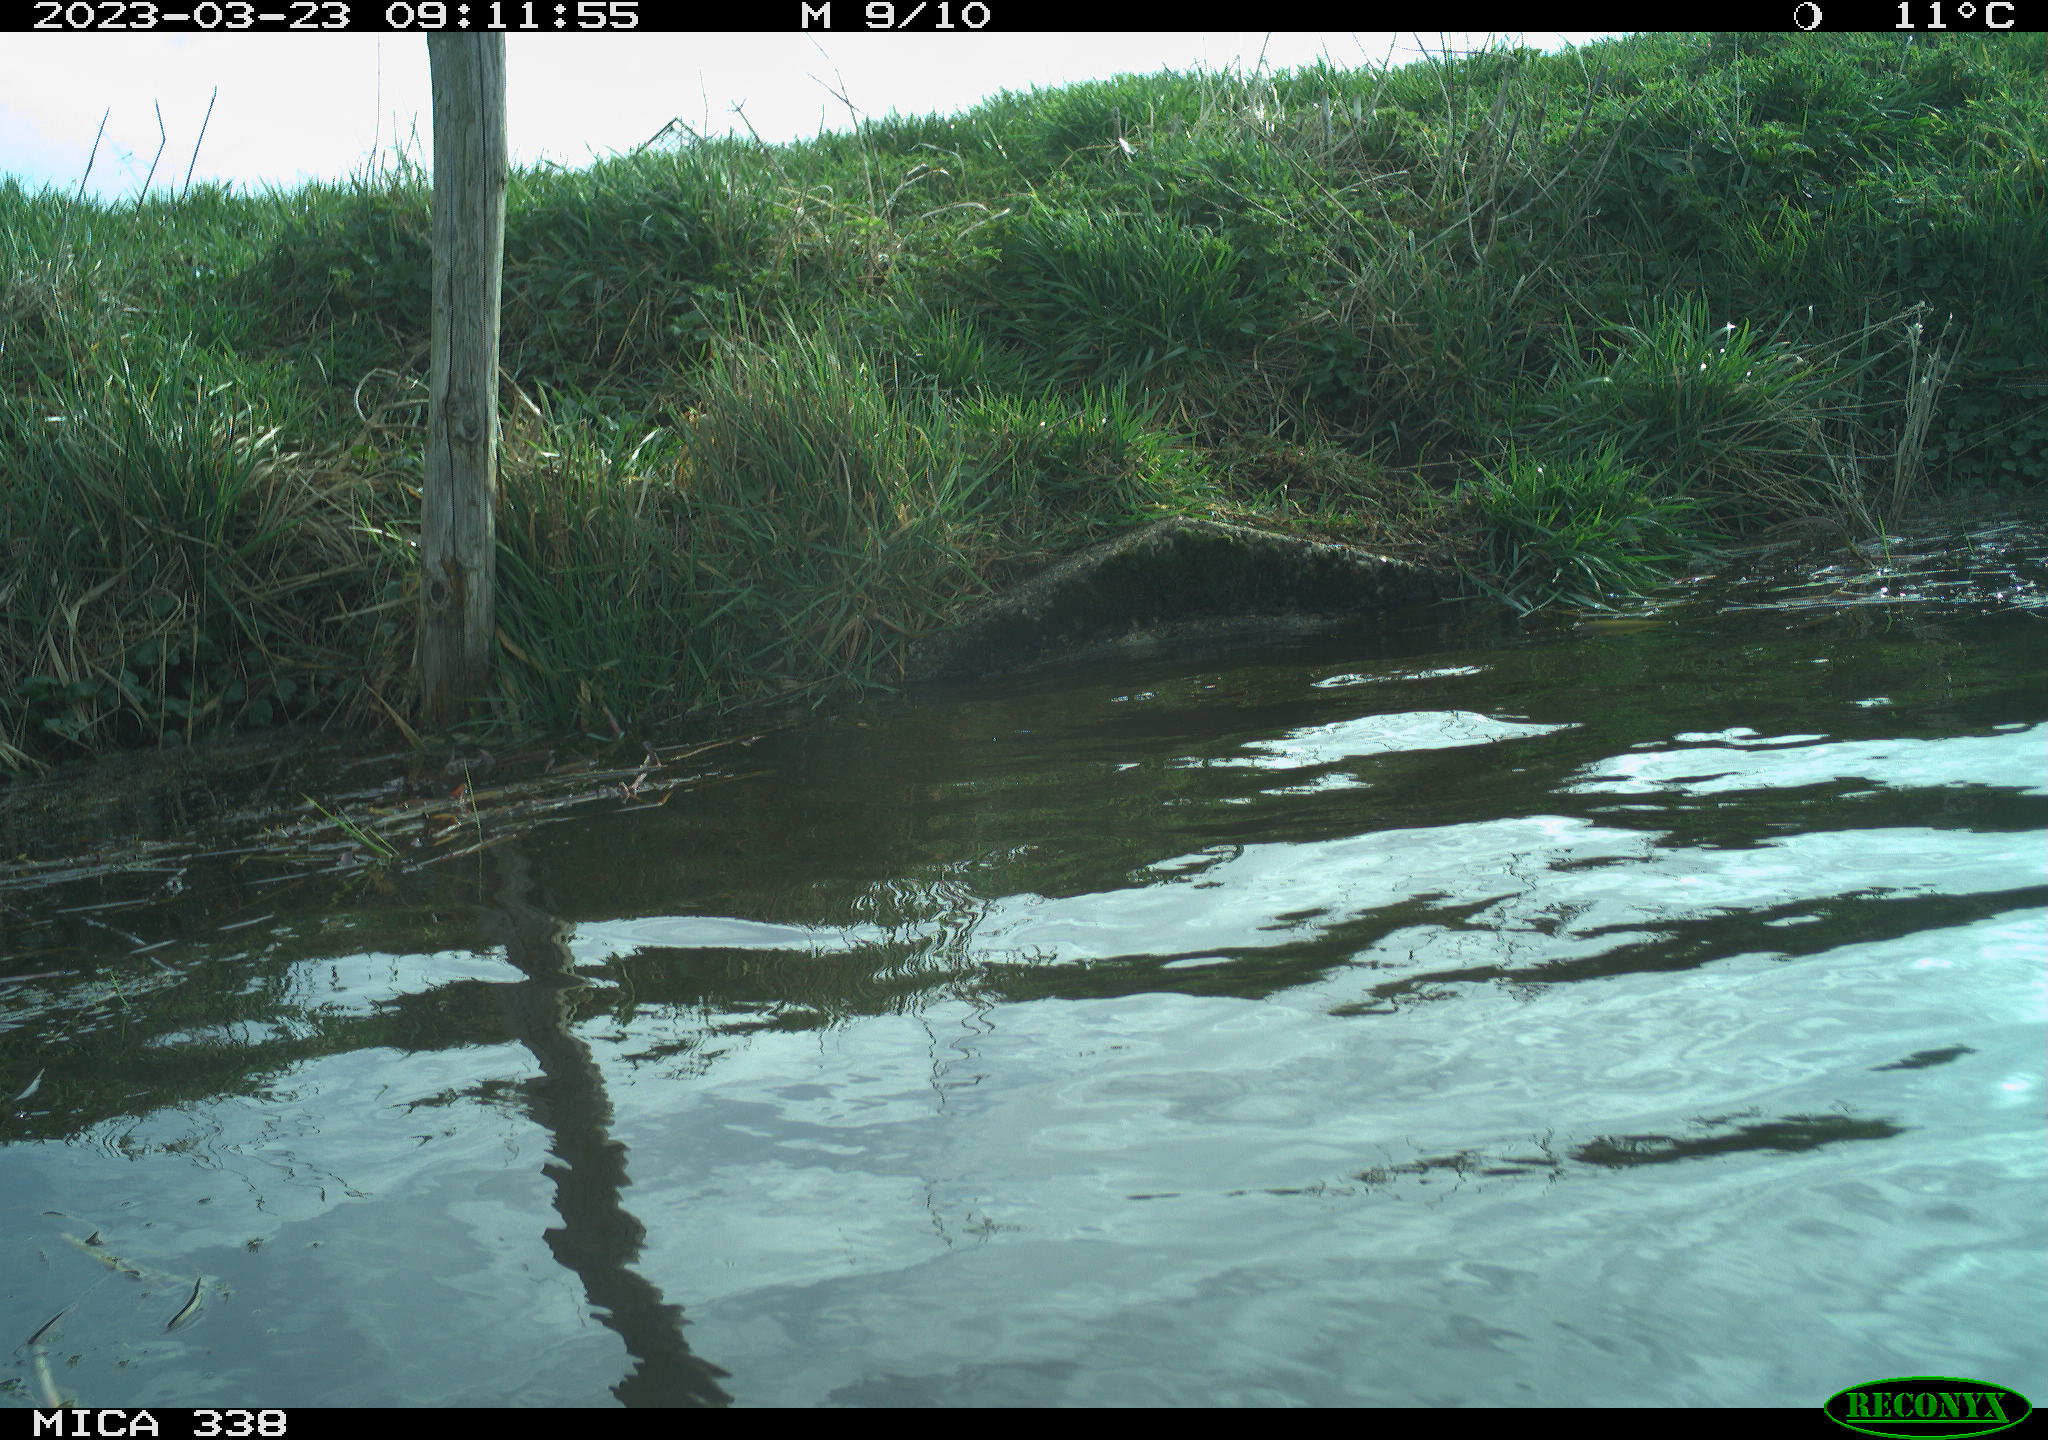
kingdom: Animalia
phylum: Chordata
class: Aves
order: Anseriformes
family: Anatidae
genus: Anas
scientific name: Anas
